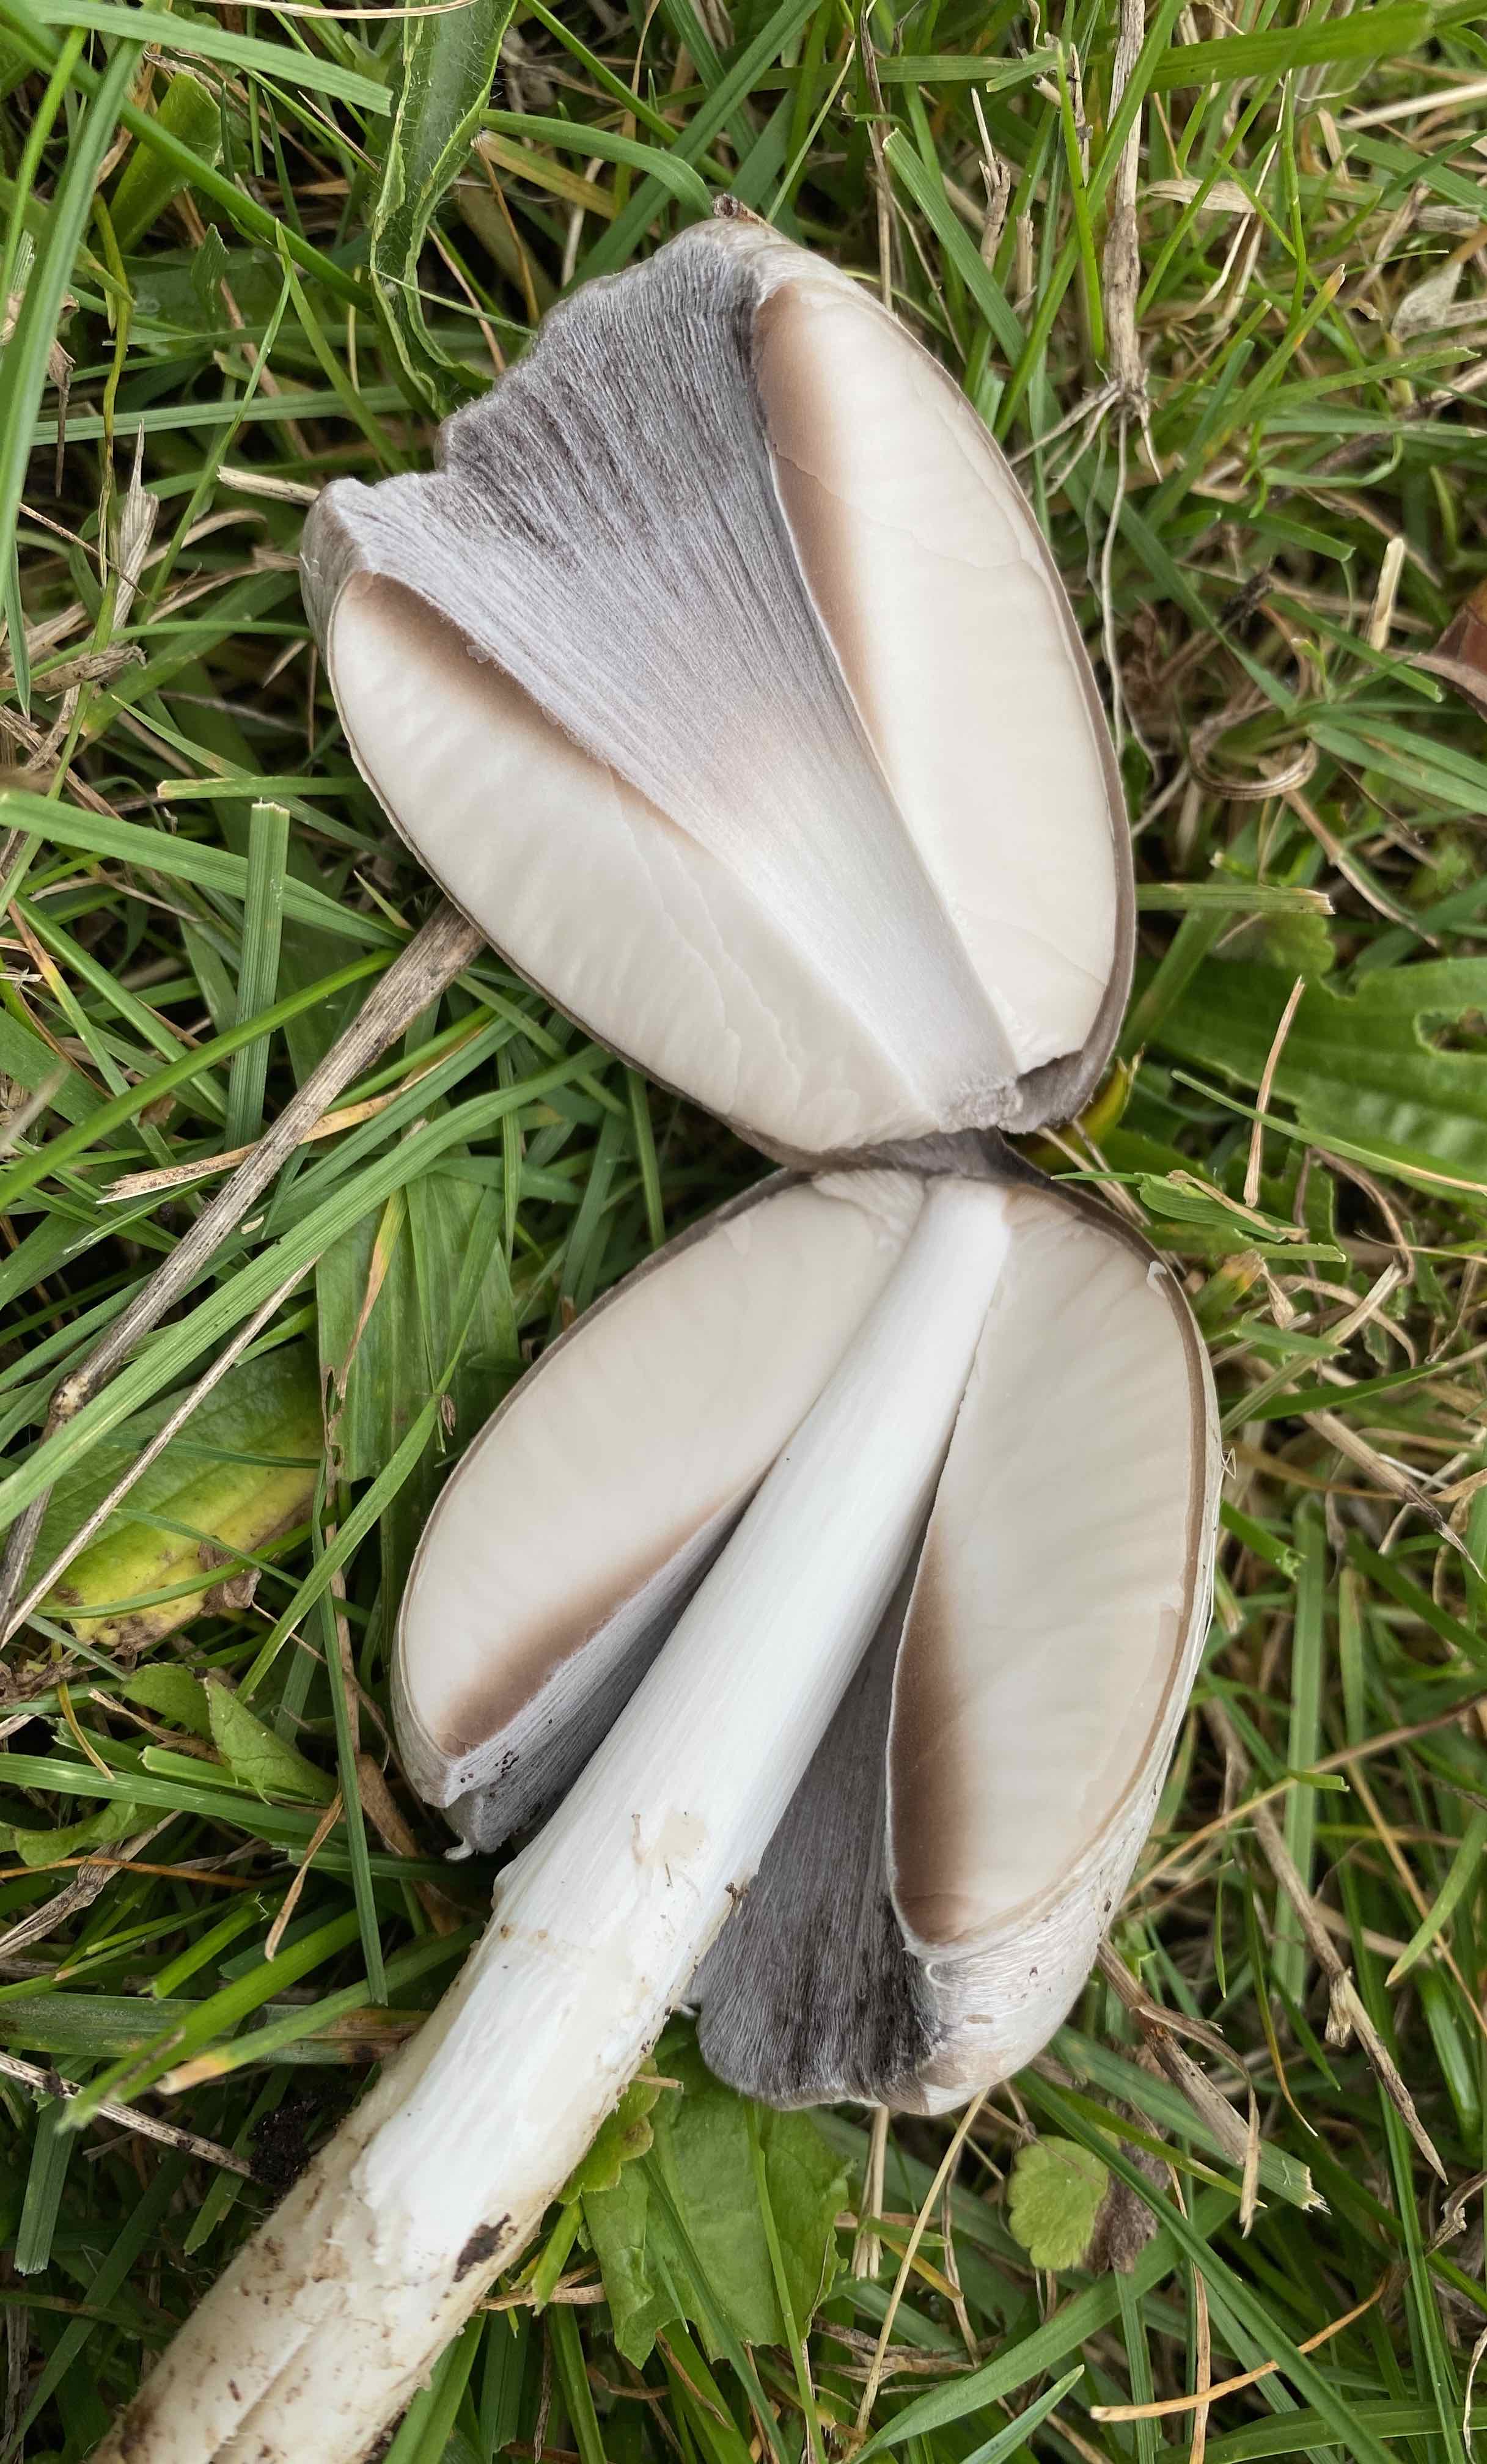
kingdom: Fungi
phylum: Basidiomycota
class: Agaricomycetes
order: Agaricales
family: Psathyrellaceae
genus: Coprinopsis
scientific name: Coprinopsis atramentaria
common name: almindelig blækhat
